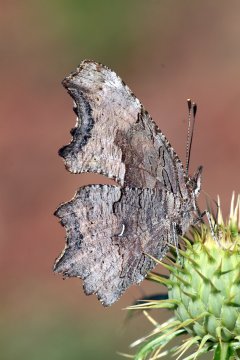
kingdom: Animalia
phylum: Arthropoda
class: Insecta
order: Lepidoptera
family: Nymphalidae
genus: Polygonia
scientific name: Polygonia gracilis
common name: Hoary Comma
